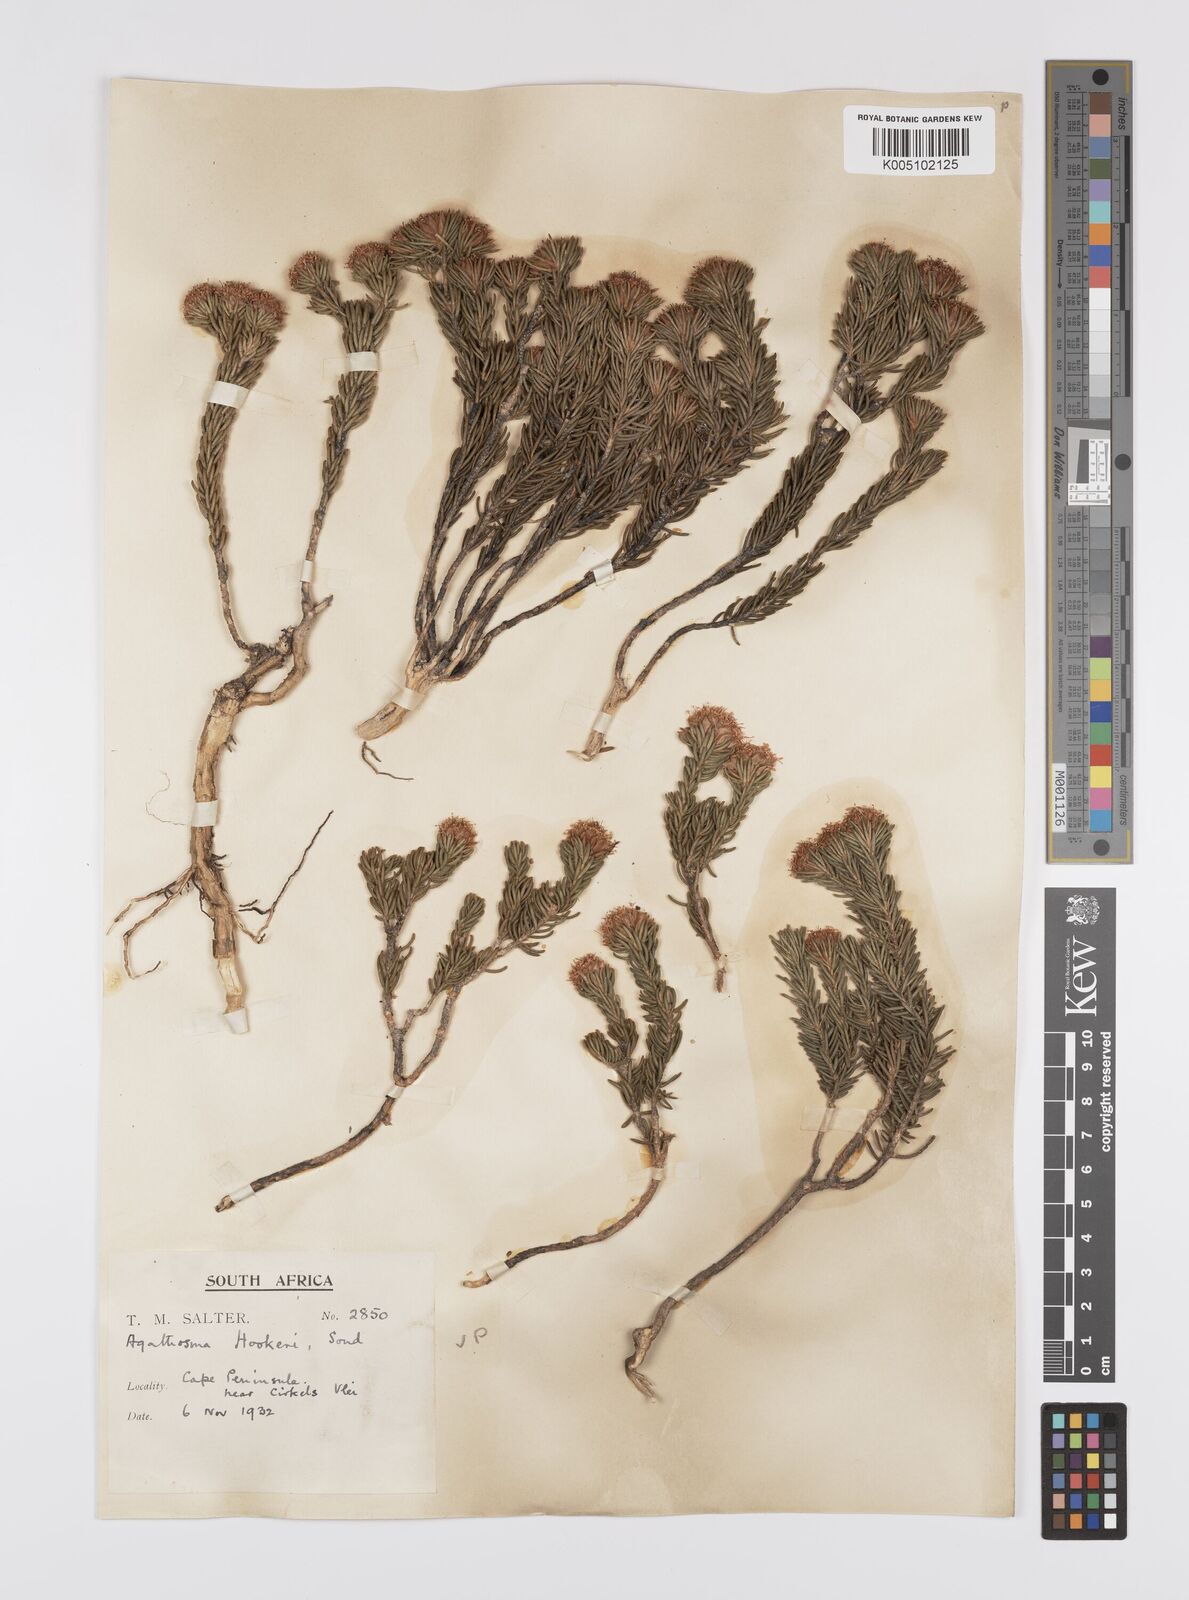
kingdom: Plantae
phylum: Tracheophyta
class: Magnoliopsida
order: Sapindales
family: Rutaceae
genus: Agathosma
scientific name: Agathosma hookeri
